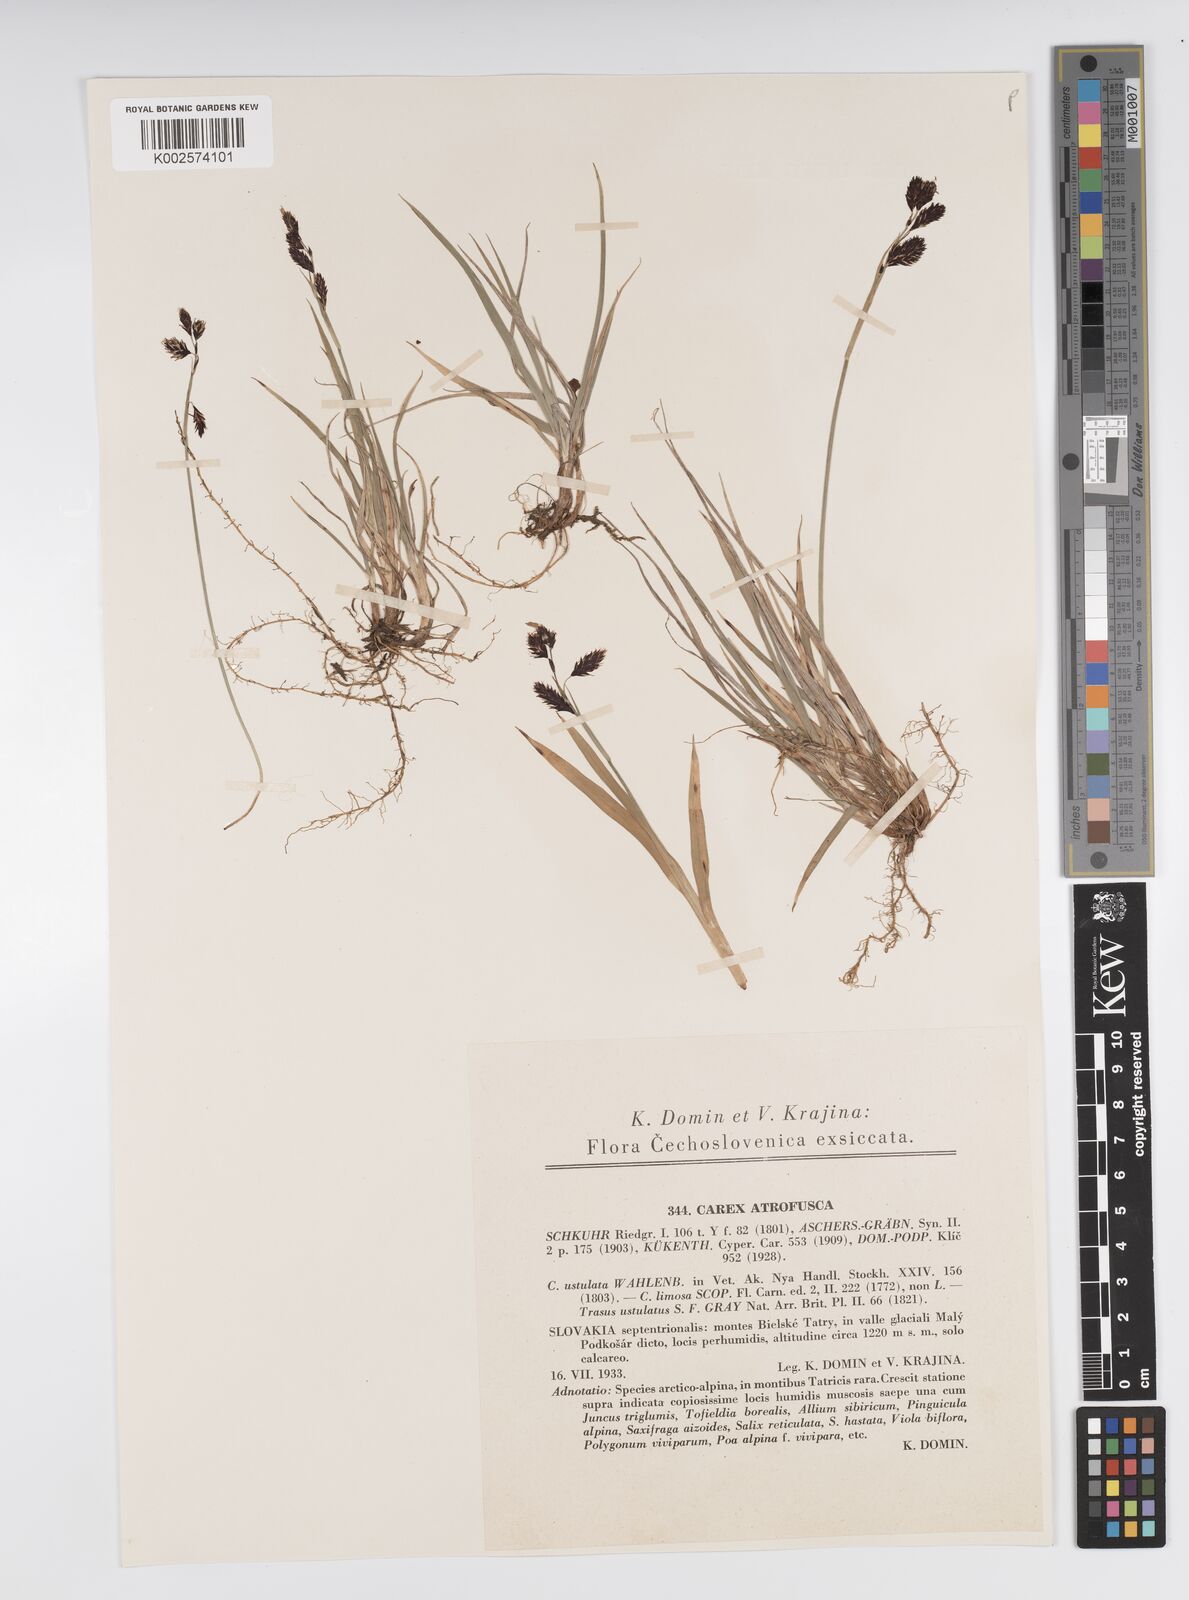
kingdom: Plantae
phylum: Tracheophyta
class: Liliopsida
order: Poales
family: Cyperaceae
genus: Carex
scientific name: Carex atrofusca
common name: Scorched alpine-sedge
